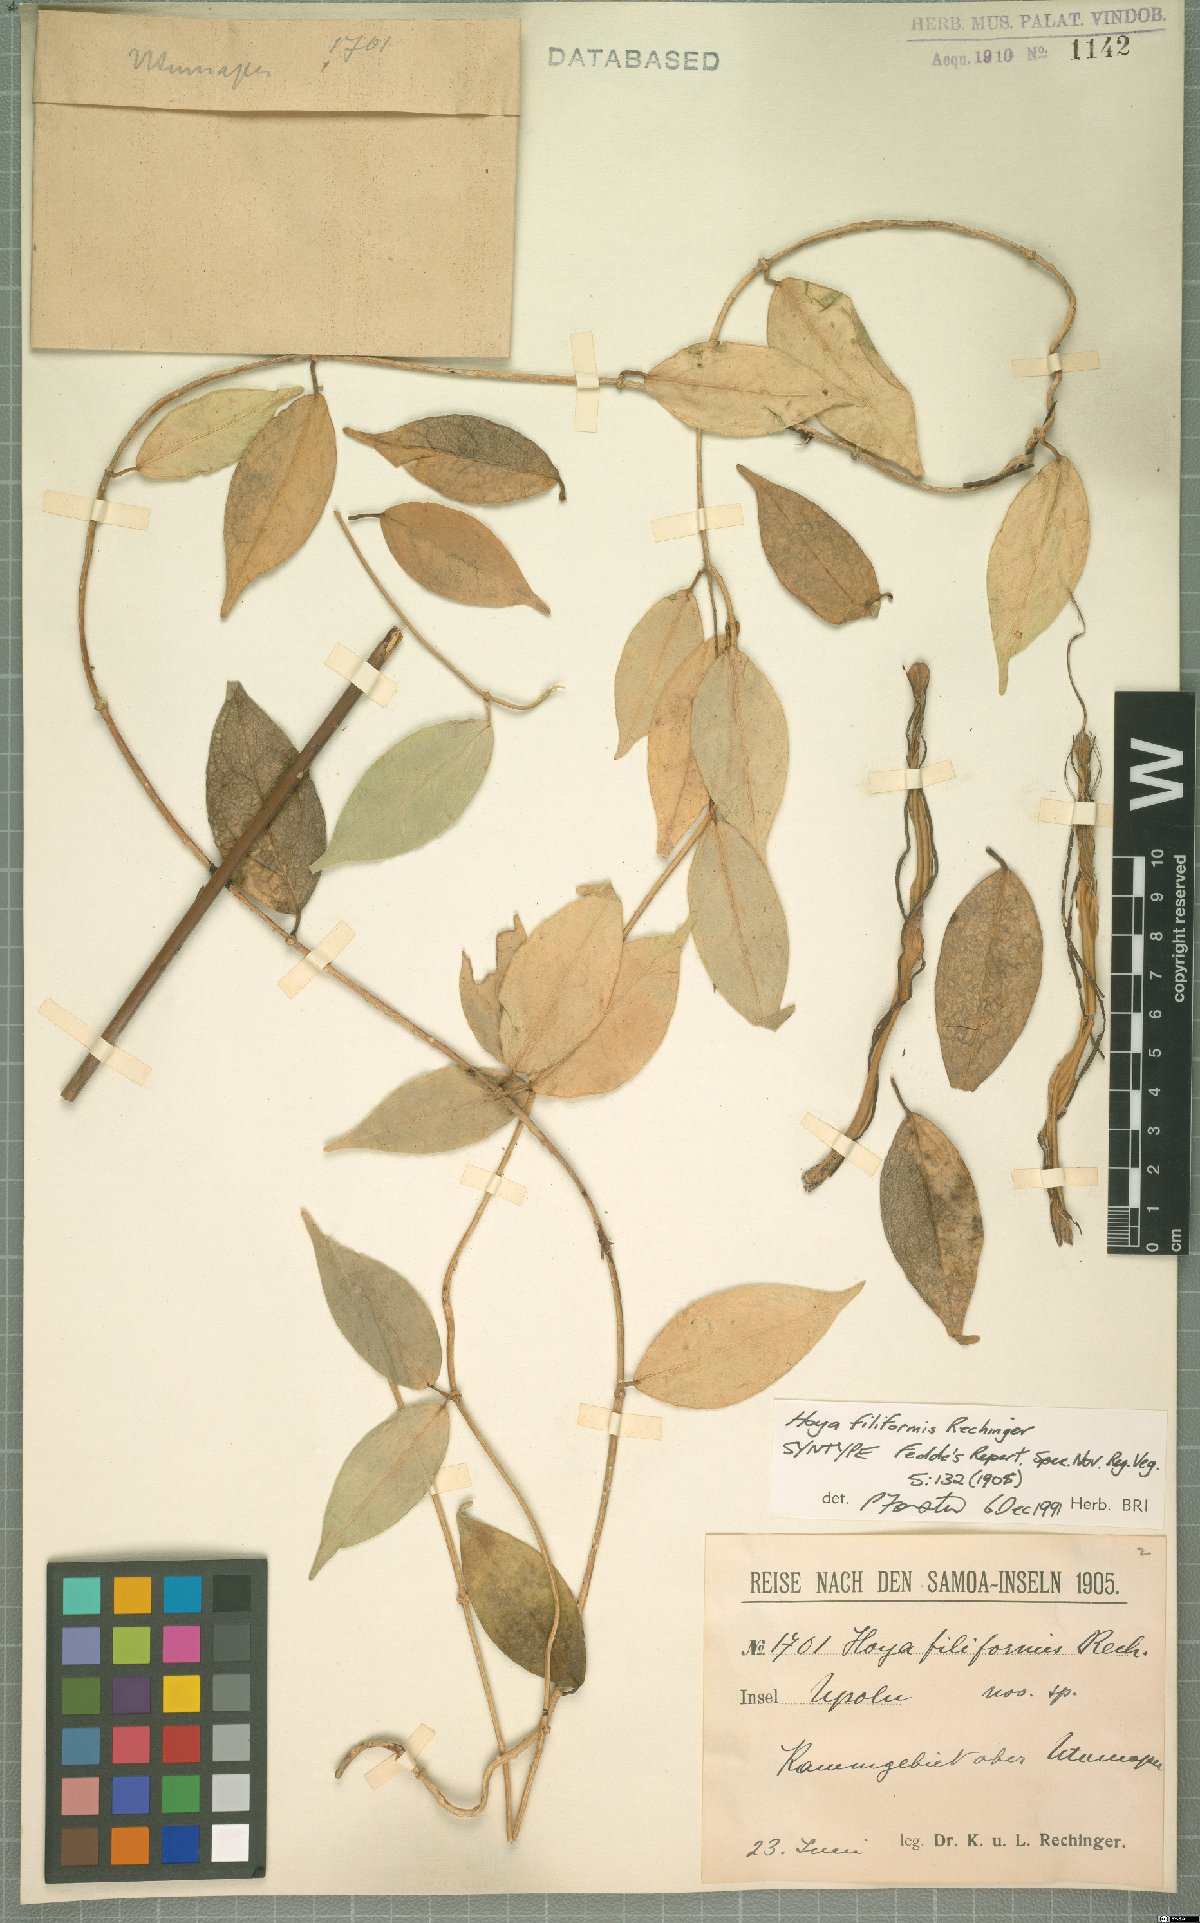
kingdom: Plantae
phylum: Tracheophyta
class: Magnoliopsida
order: Gentianales
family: Apocynaceae
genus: Hoya
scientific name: Hoya filiformis
